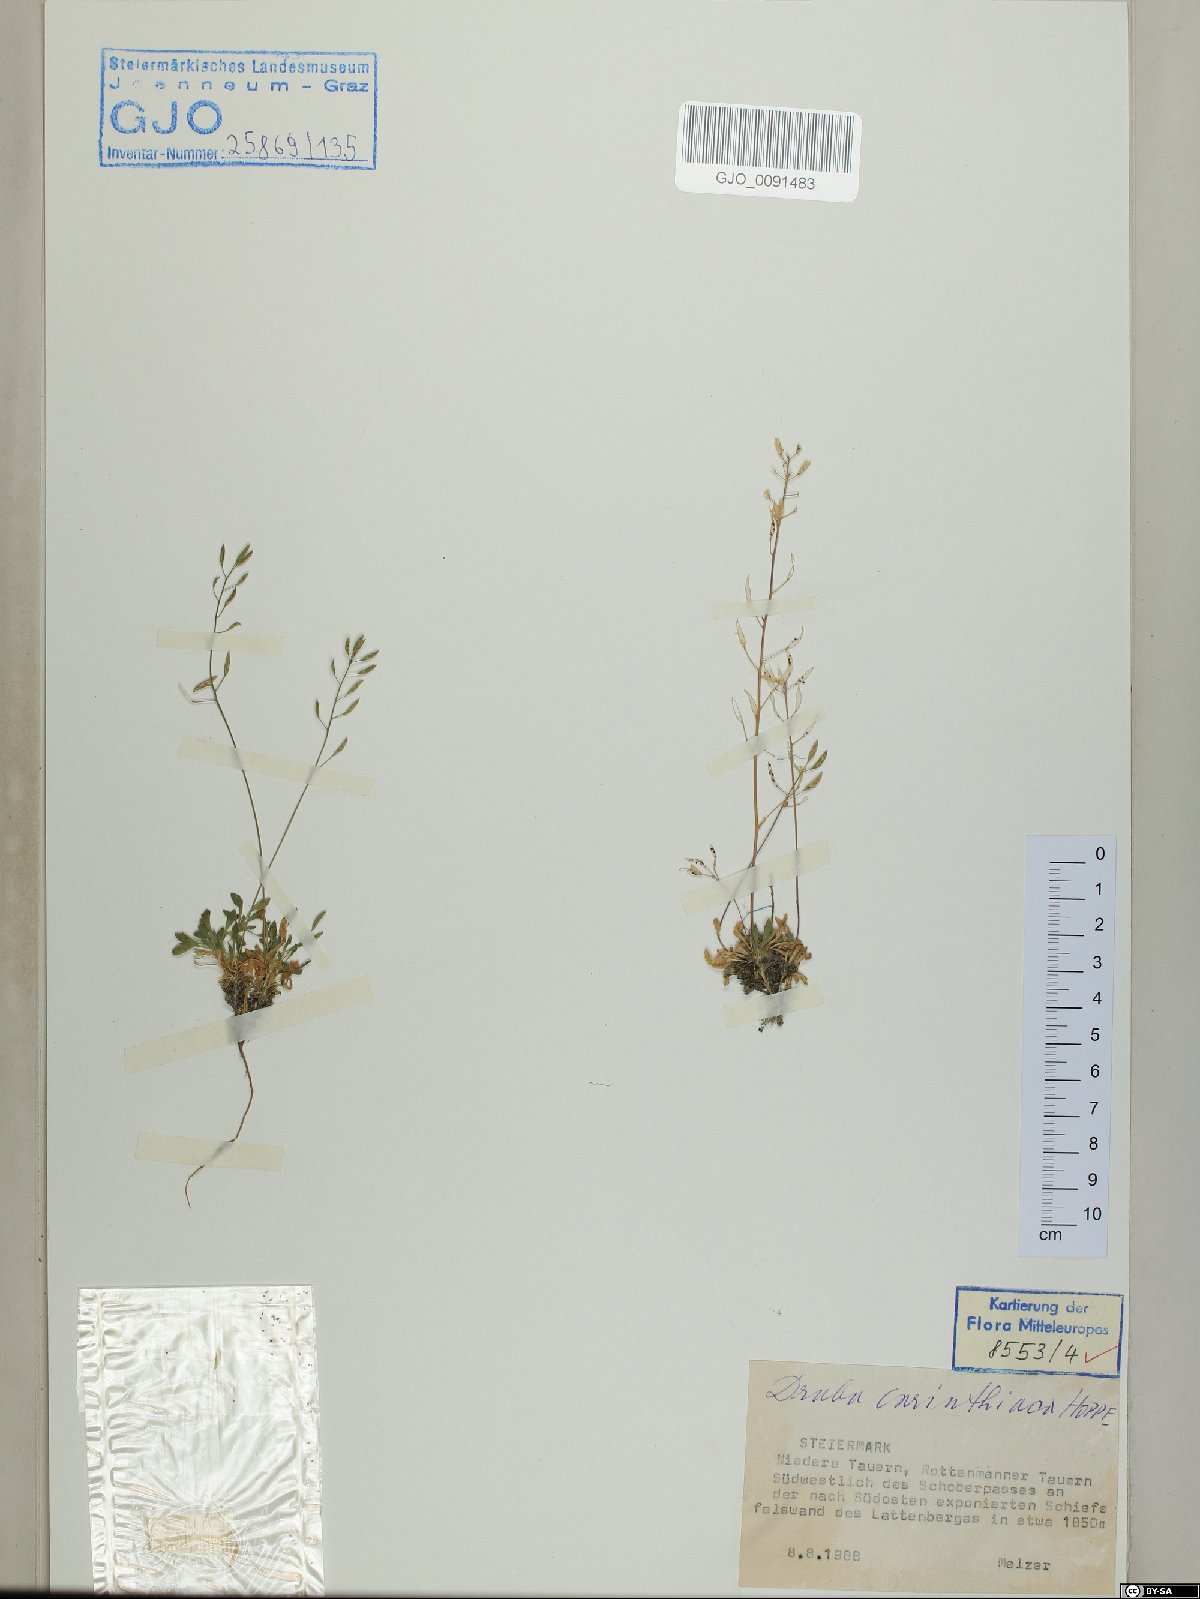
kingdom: Plantae
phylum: Tracheophyta
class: Magnoliopsida
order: Brassicales
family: Brassicaceae
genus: Draba
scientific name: Draba siliquosa
